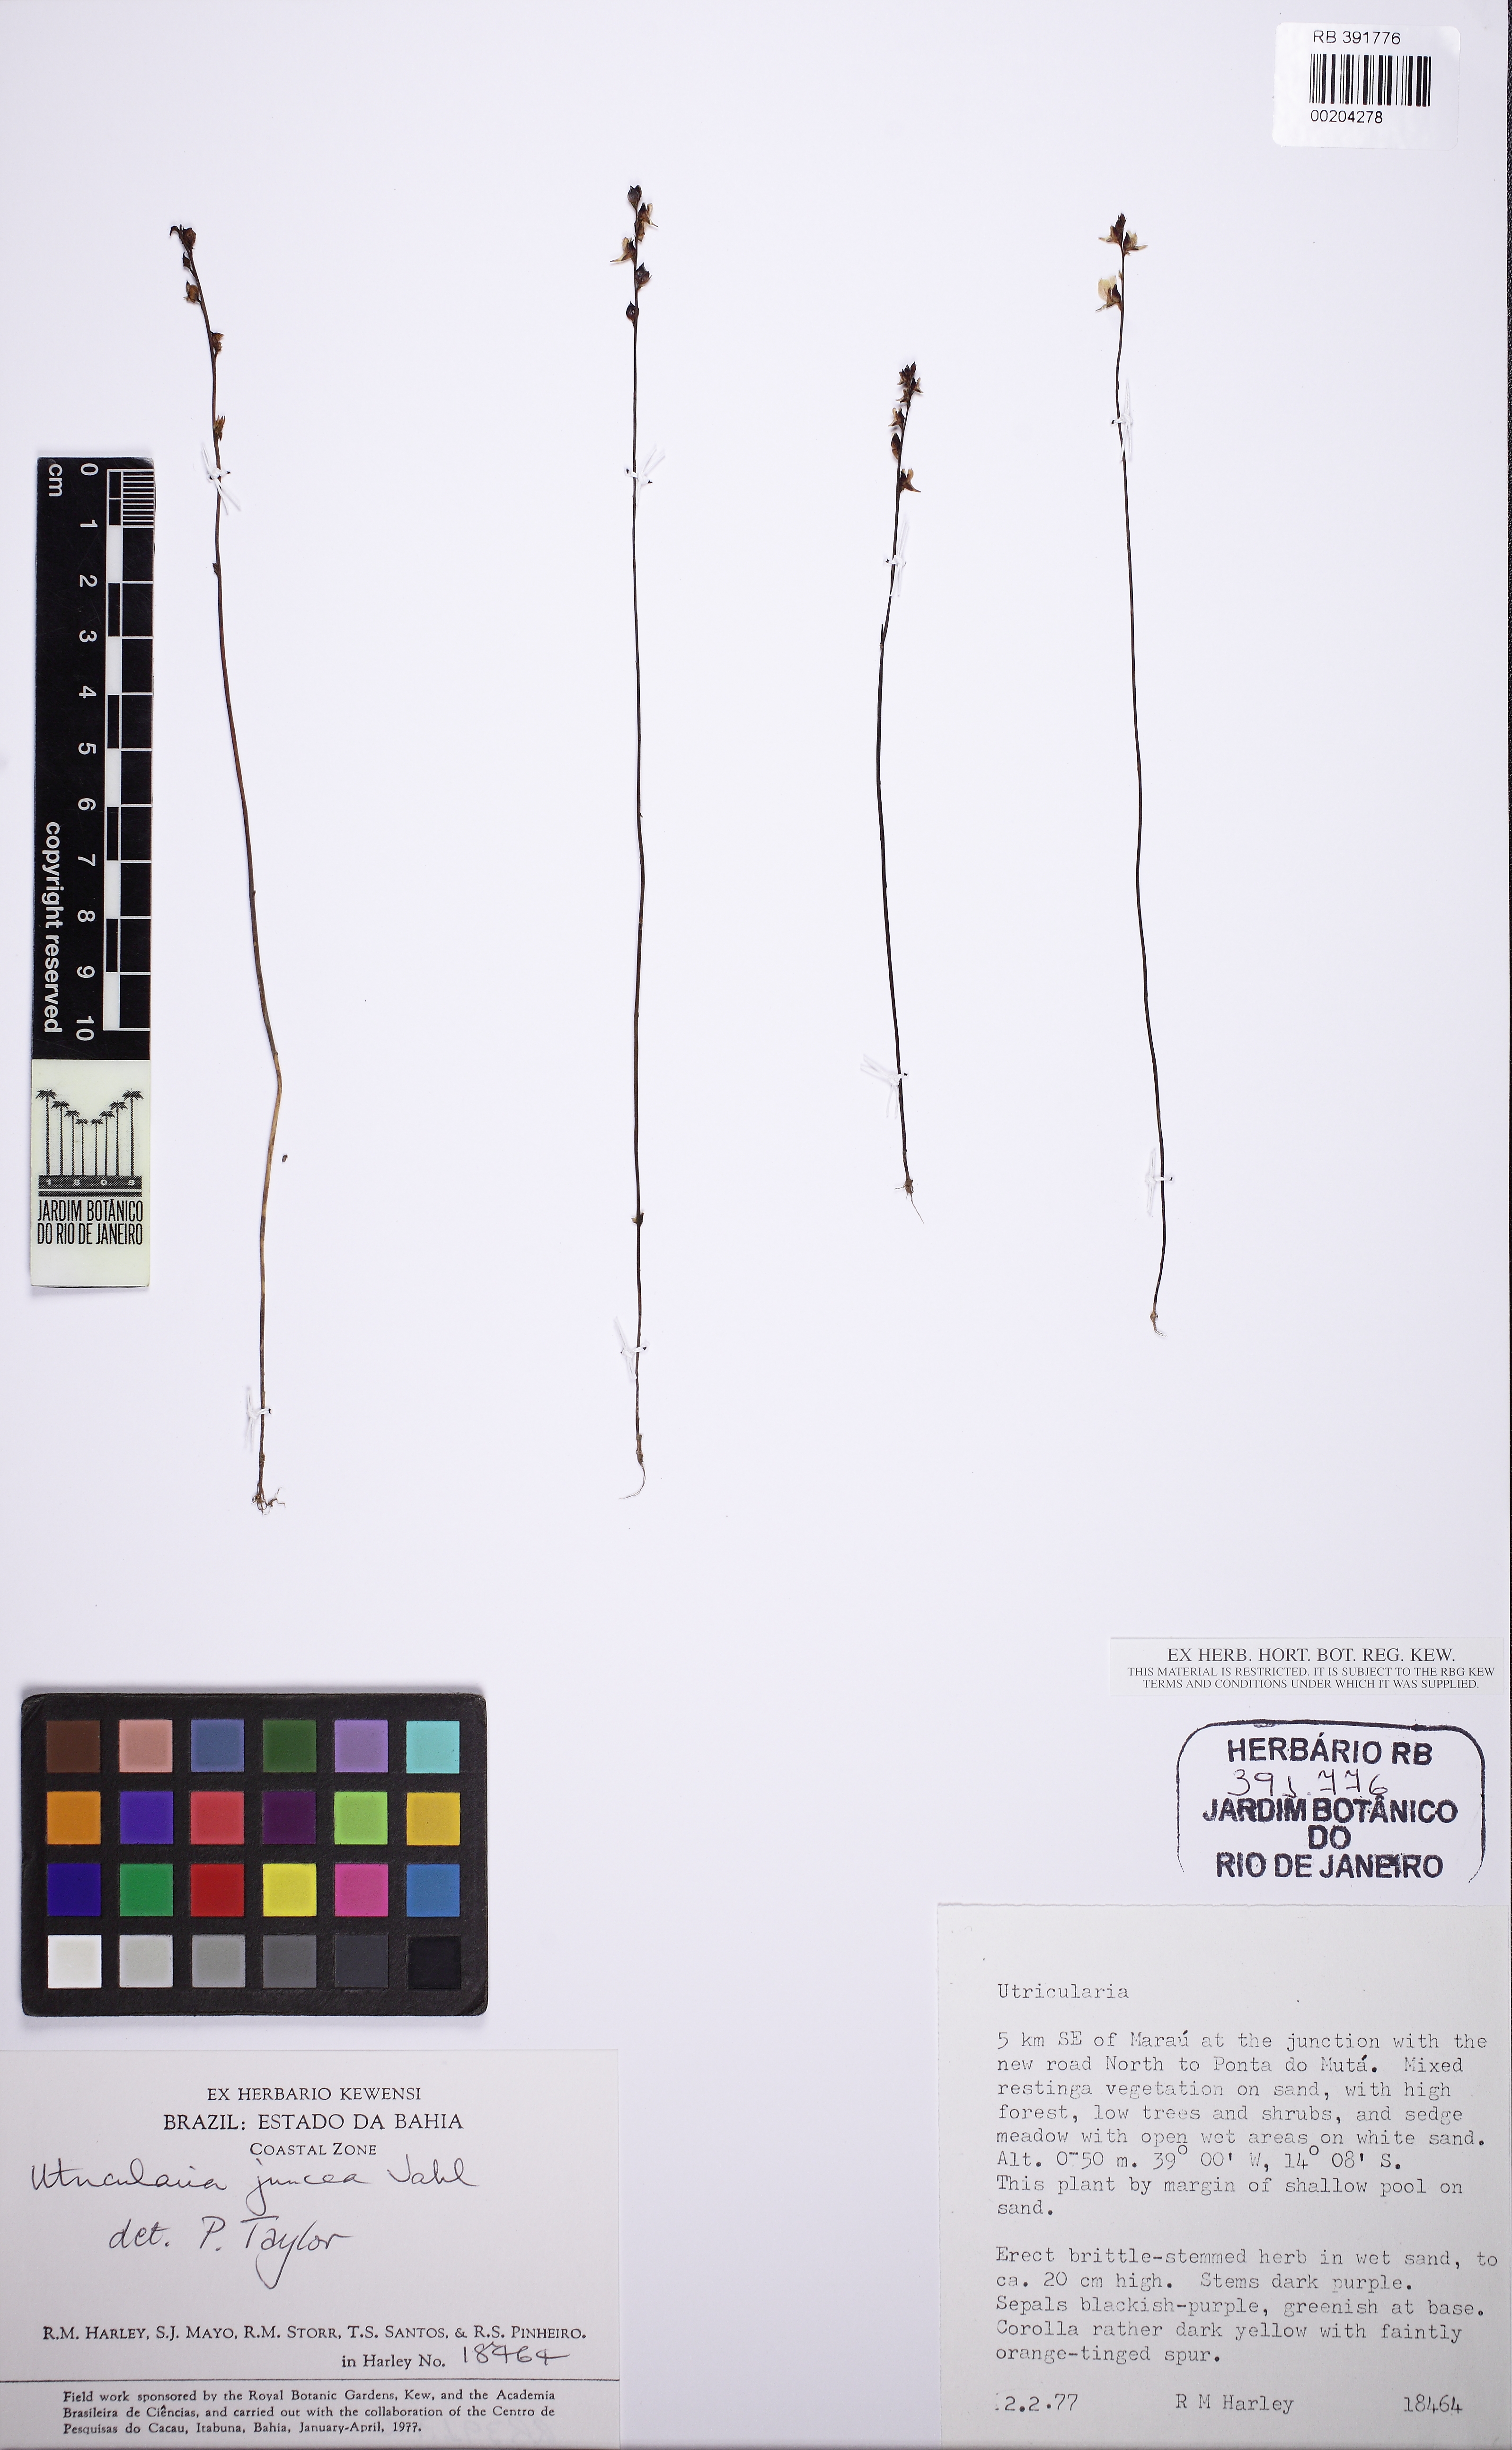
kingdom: Plantae
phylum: Tracheophyta
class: Magnoliopsida
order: Lamiales
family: Lentibulariaceae
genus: Utricularia
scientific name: Utricularia juncea
